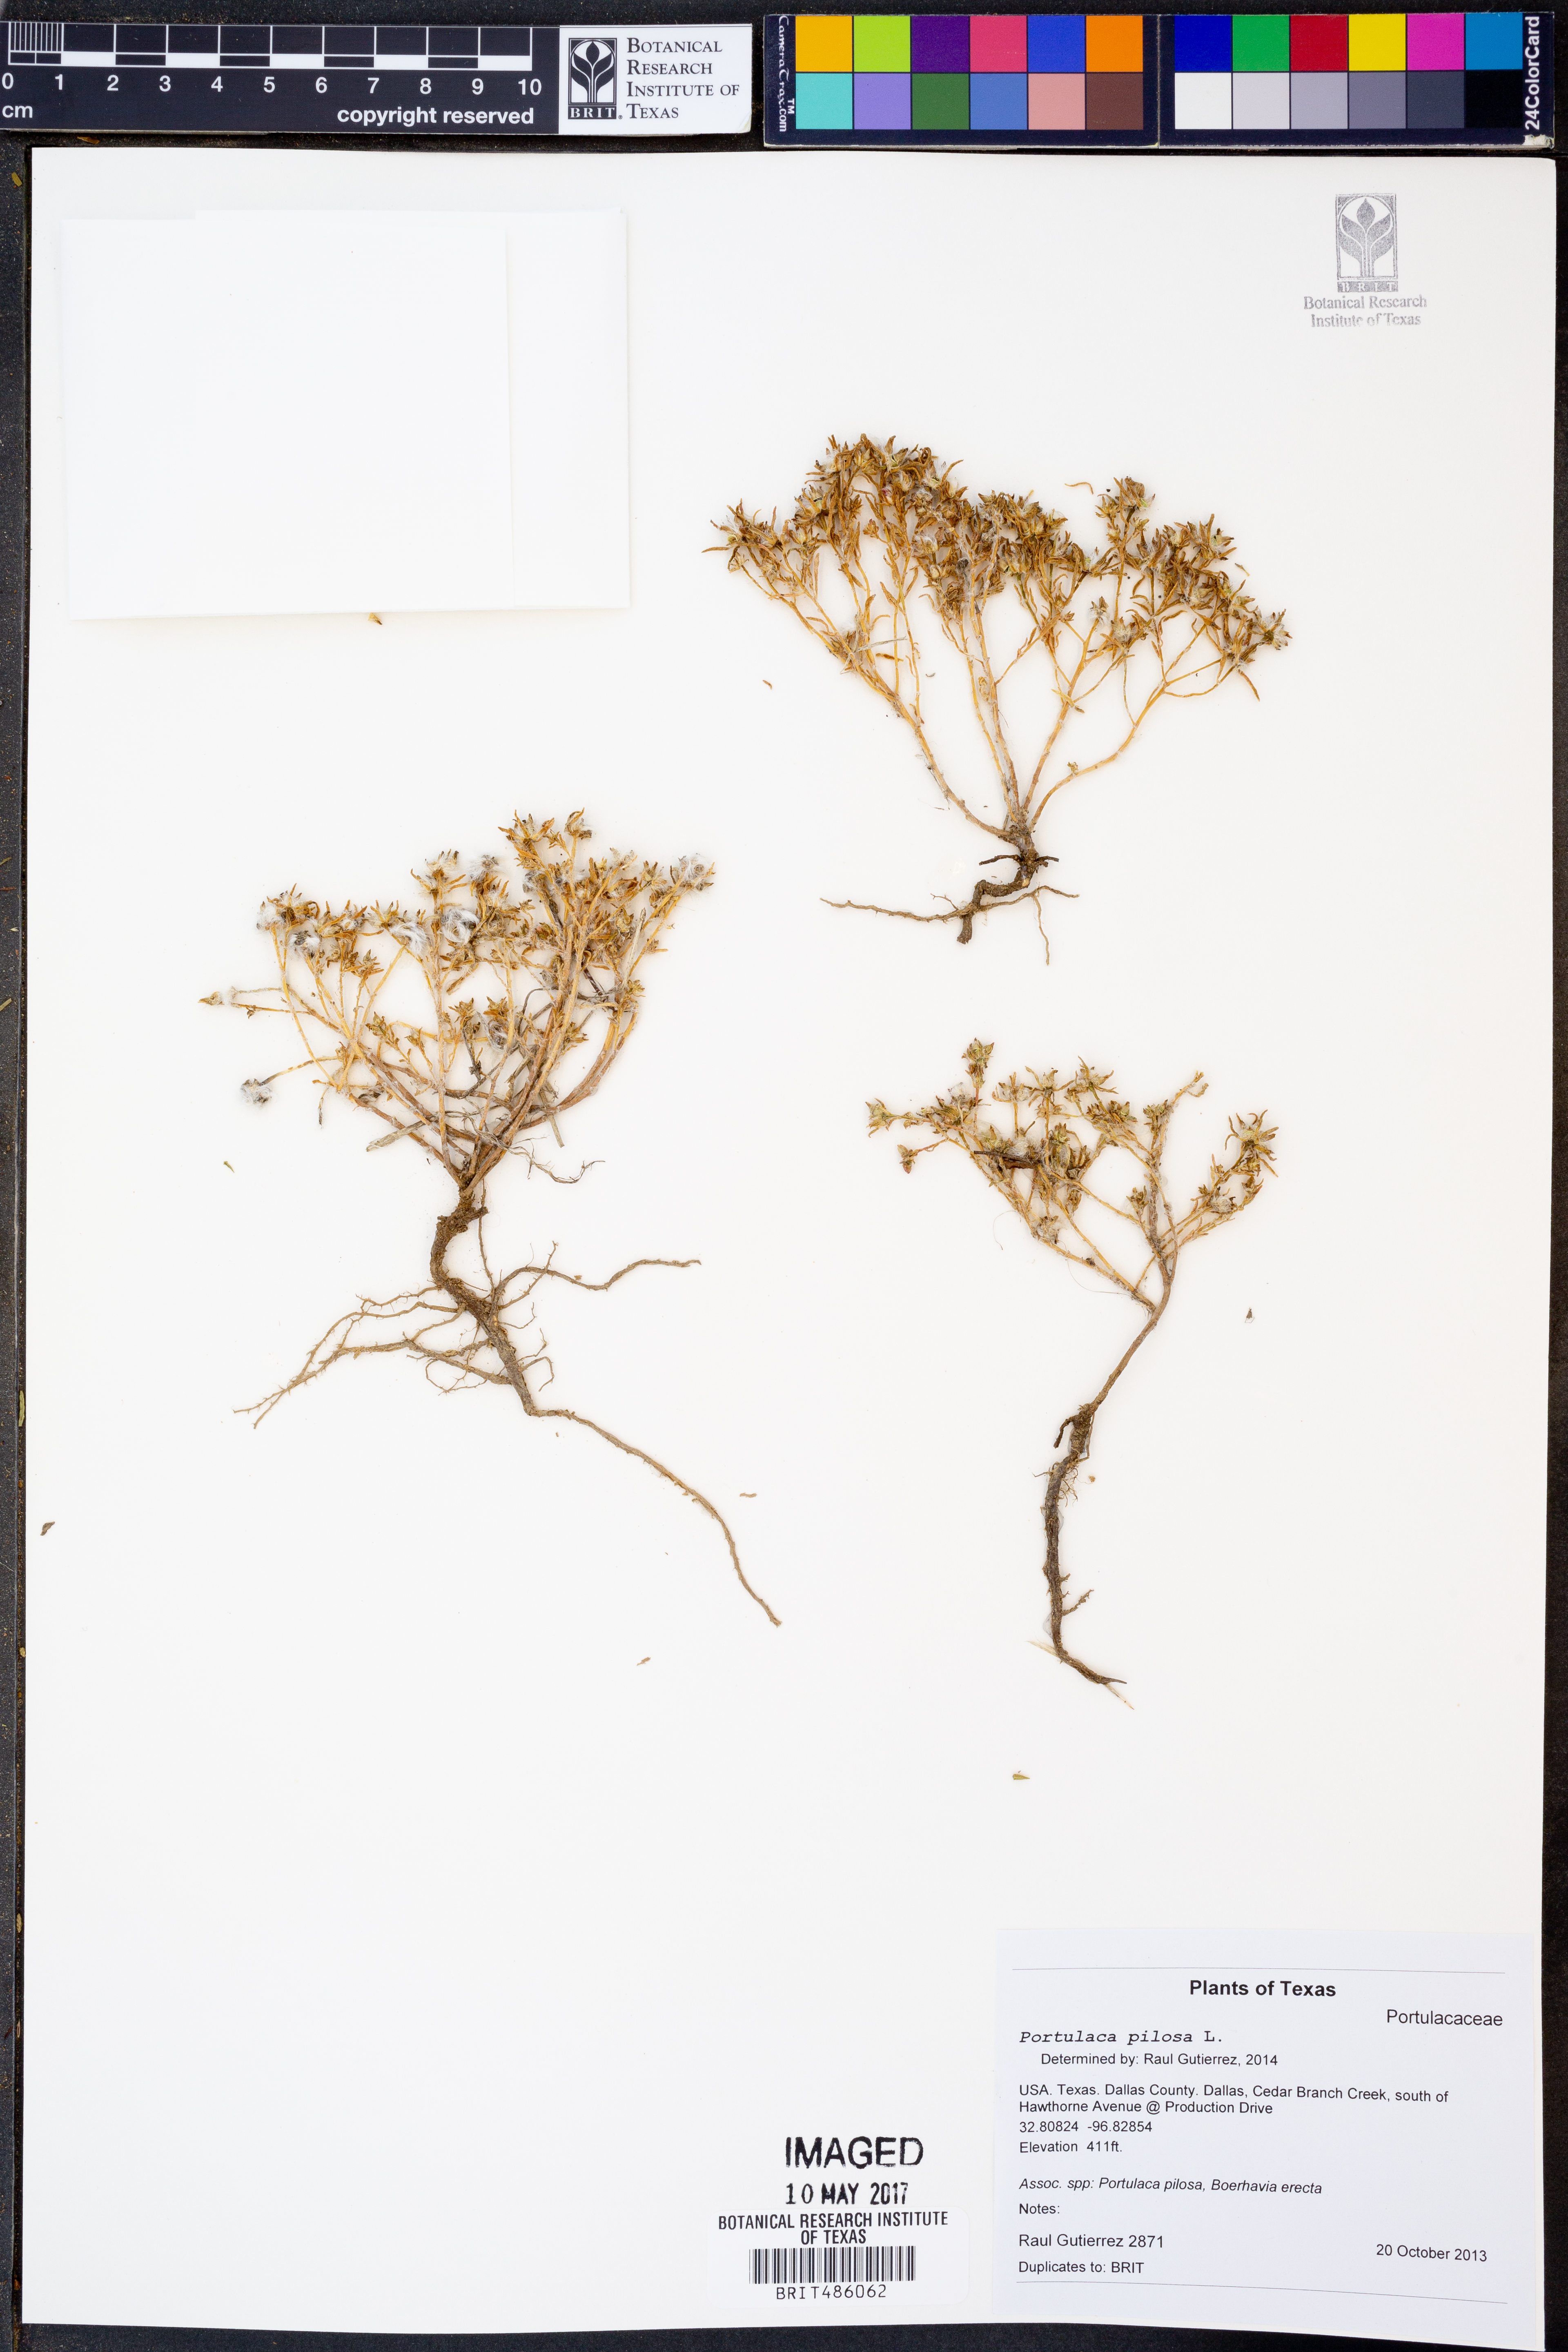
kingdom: Plantae
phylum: Tracheophyta
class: Magnoliopsida
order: Caryophyllales
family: Portulacaceae
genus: Portulaca
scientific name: Portulaca pilosa
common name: Kiss me quick
